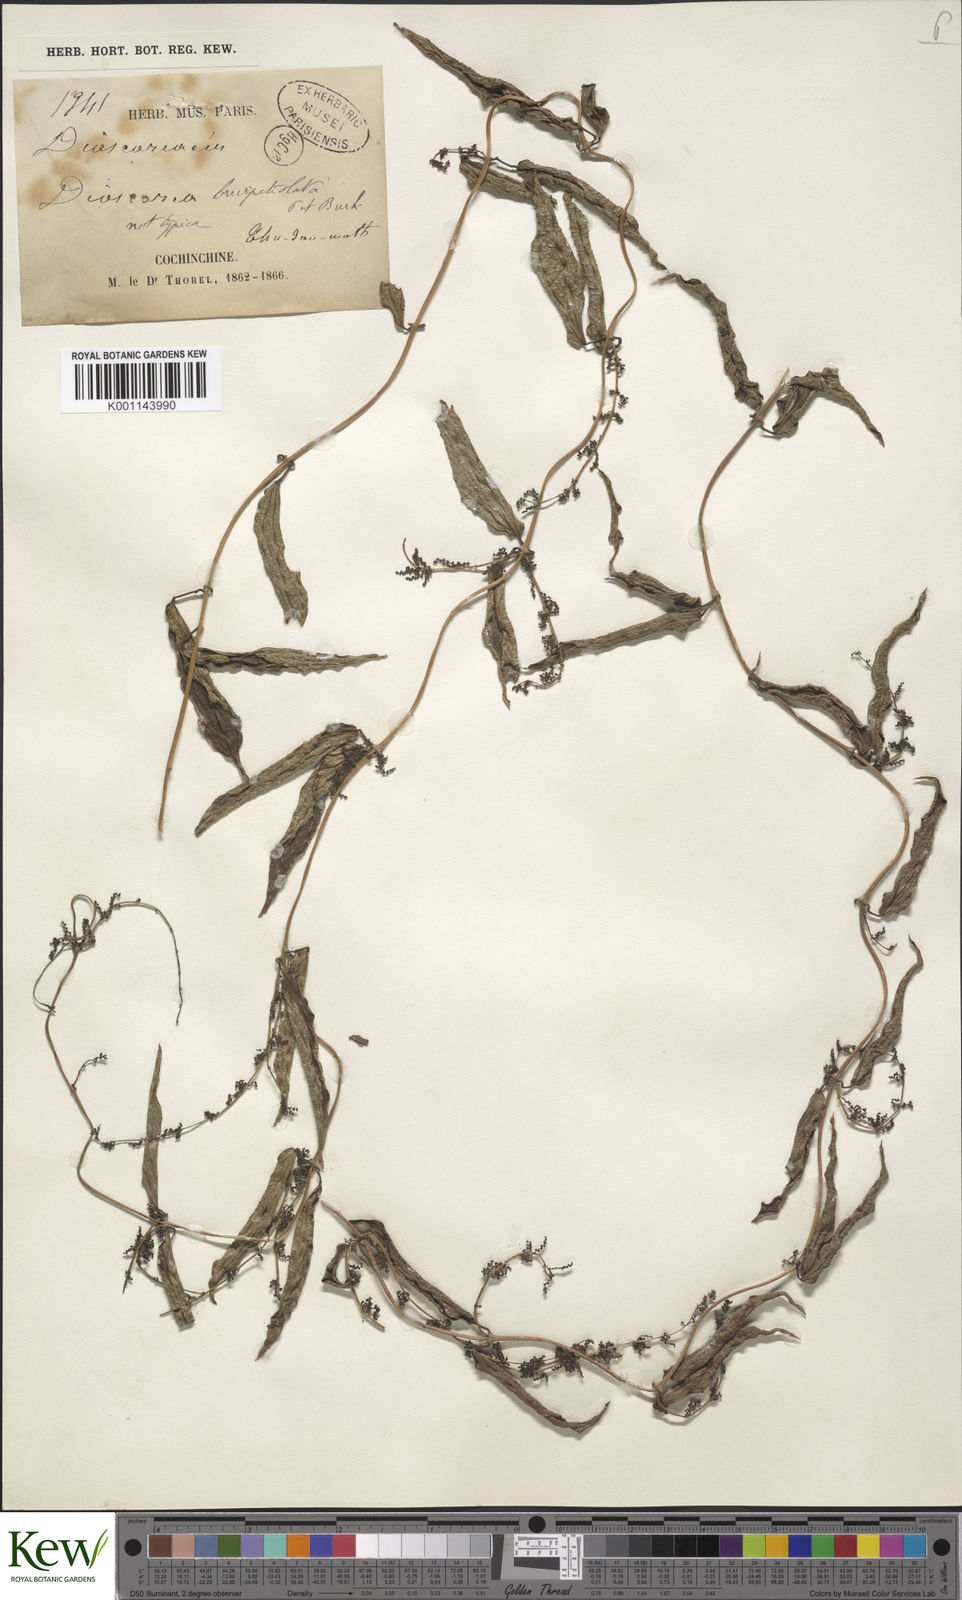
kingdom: Plantae
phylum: Tracheophyta
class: Liliopsida
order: Dioscoreales
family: Dioscoreaceae
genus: Dioscorea
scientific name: Dioscorea brevipetiolata
